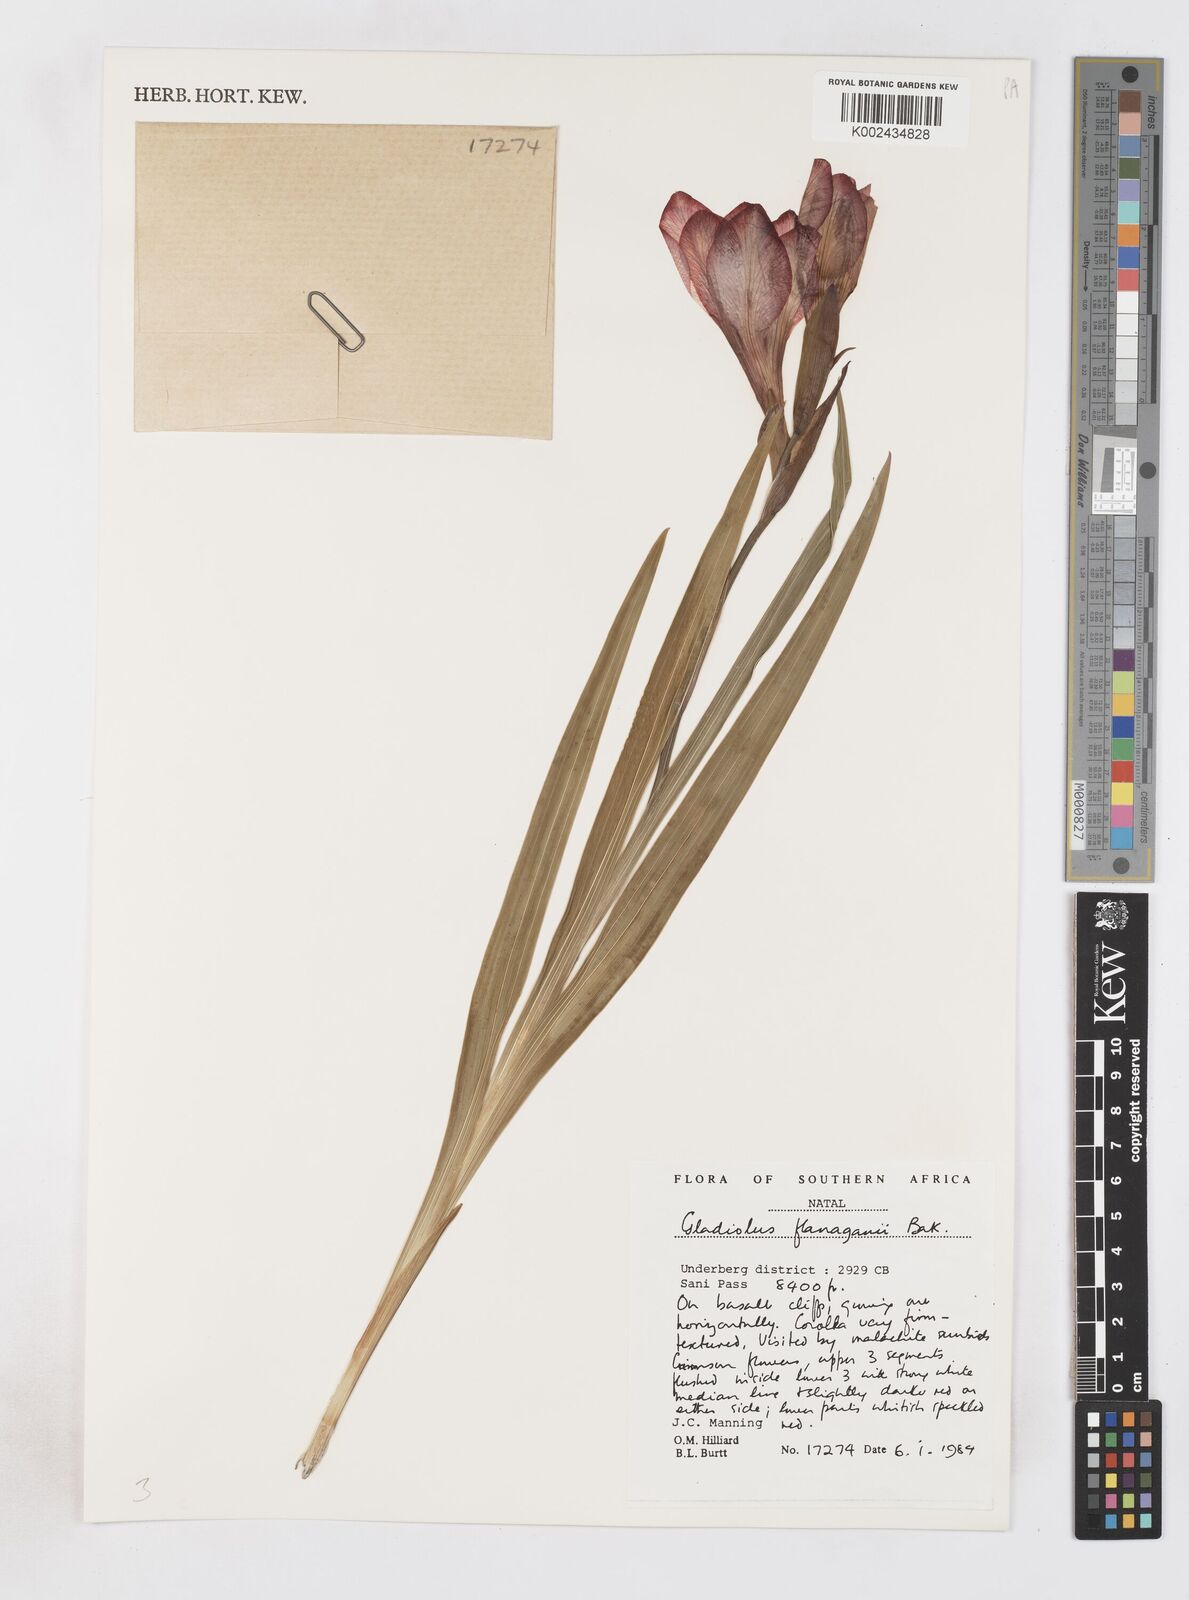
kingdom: Plantae
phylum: Tracheophyta
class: Liliopsida
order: Asparagales
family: Iridaceae
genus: Gladiolus
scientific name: Gladiolus cruentus
